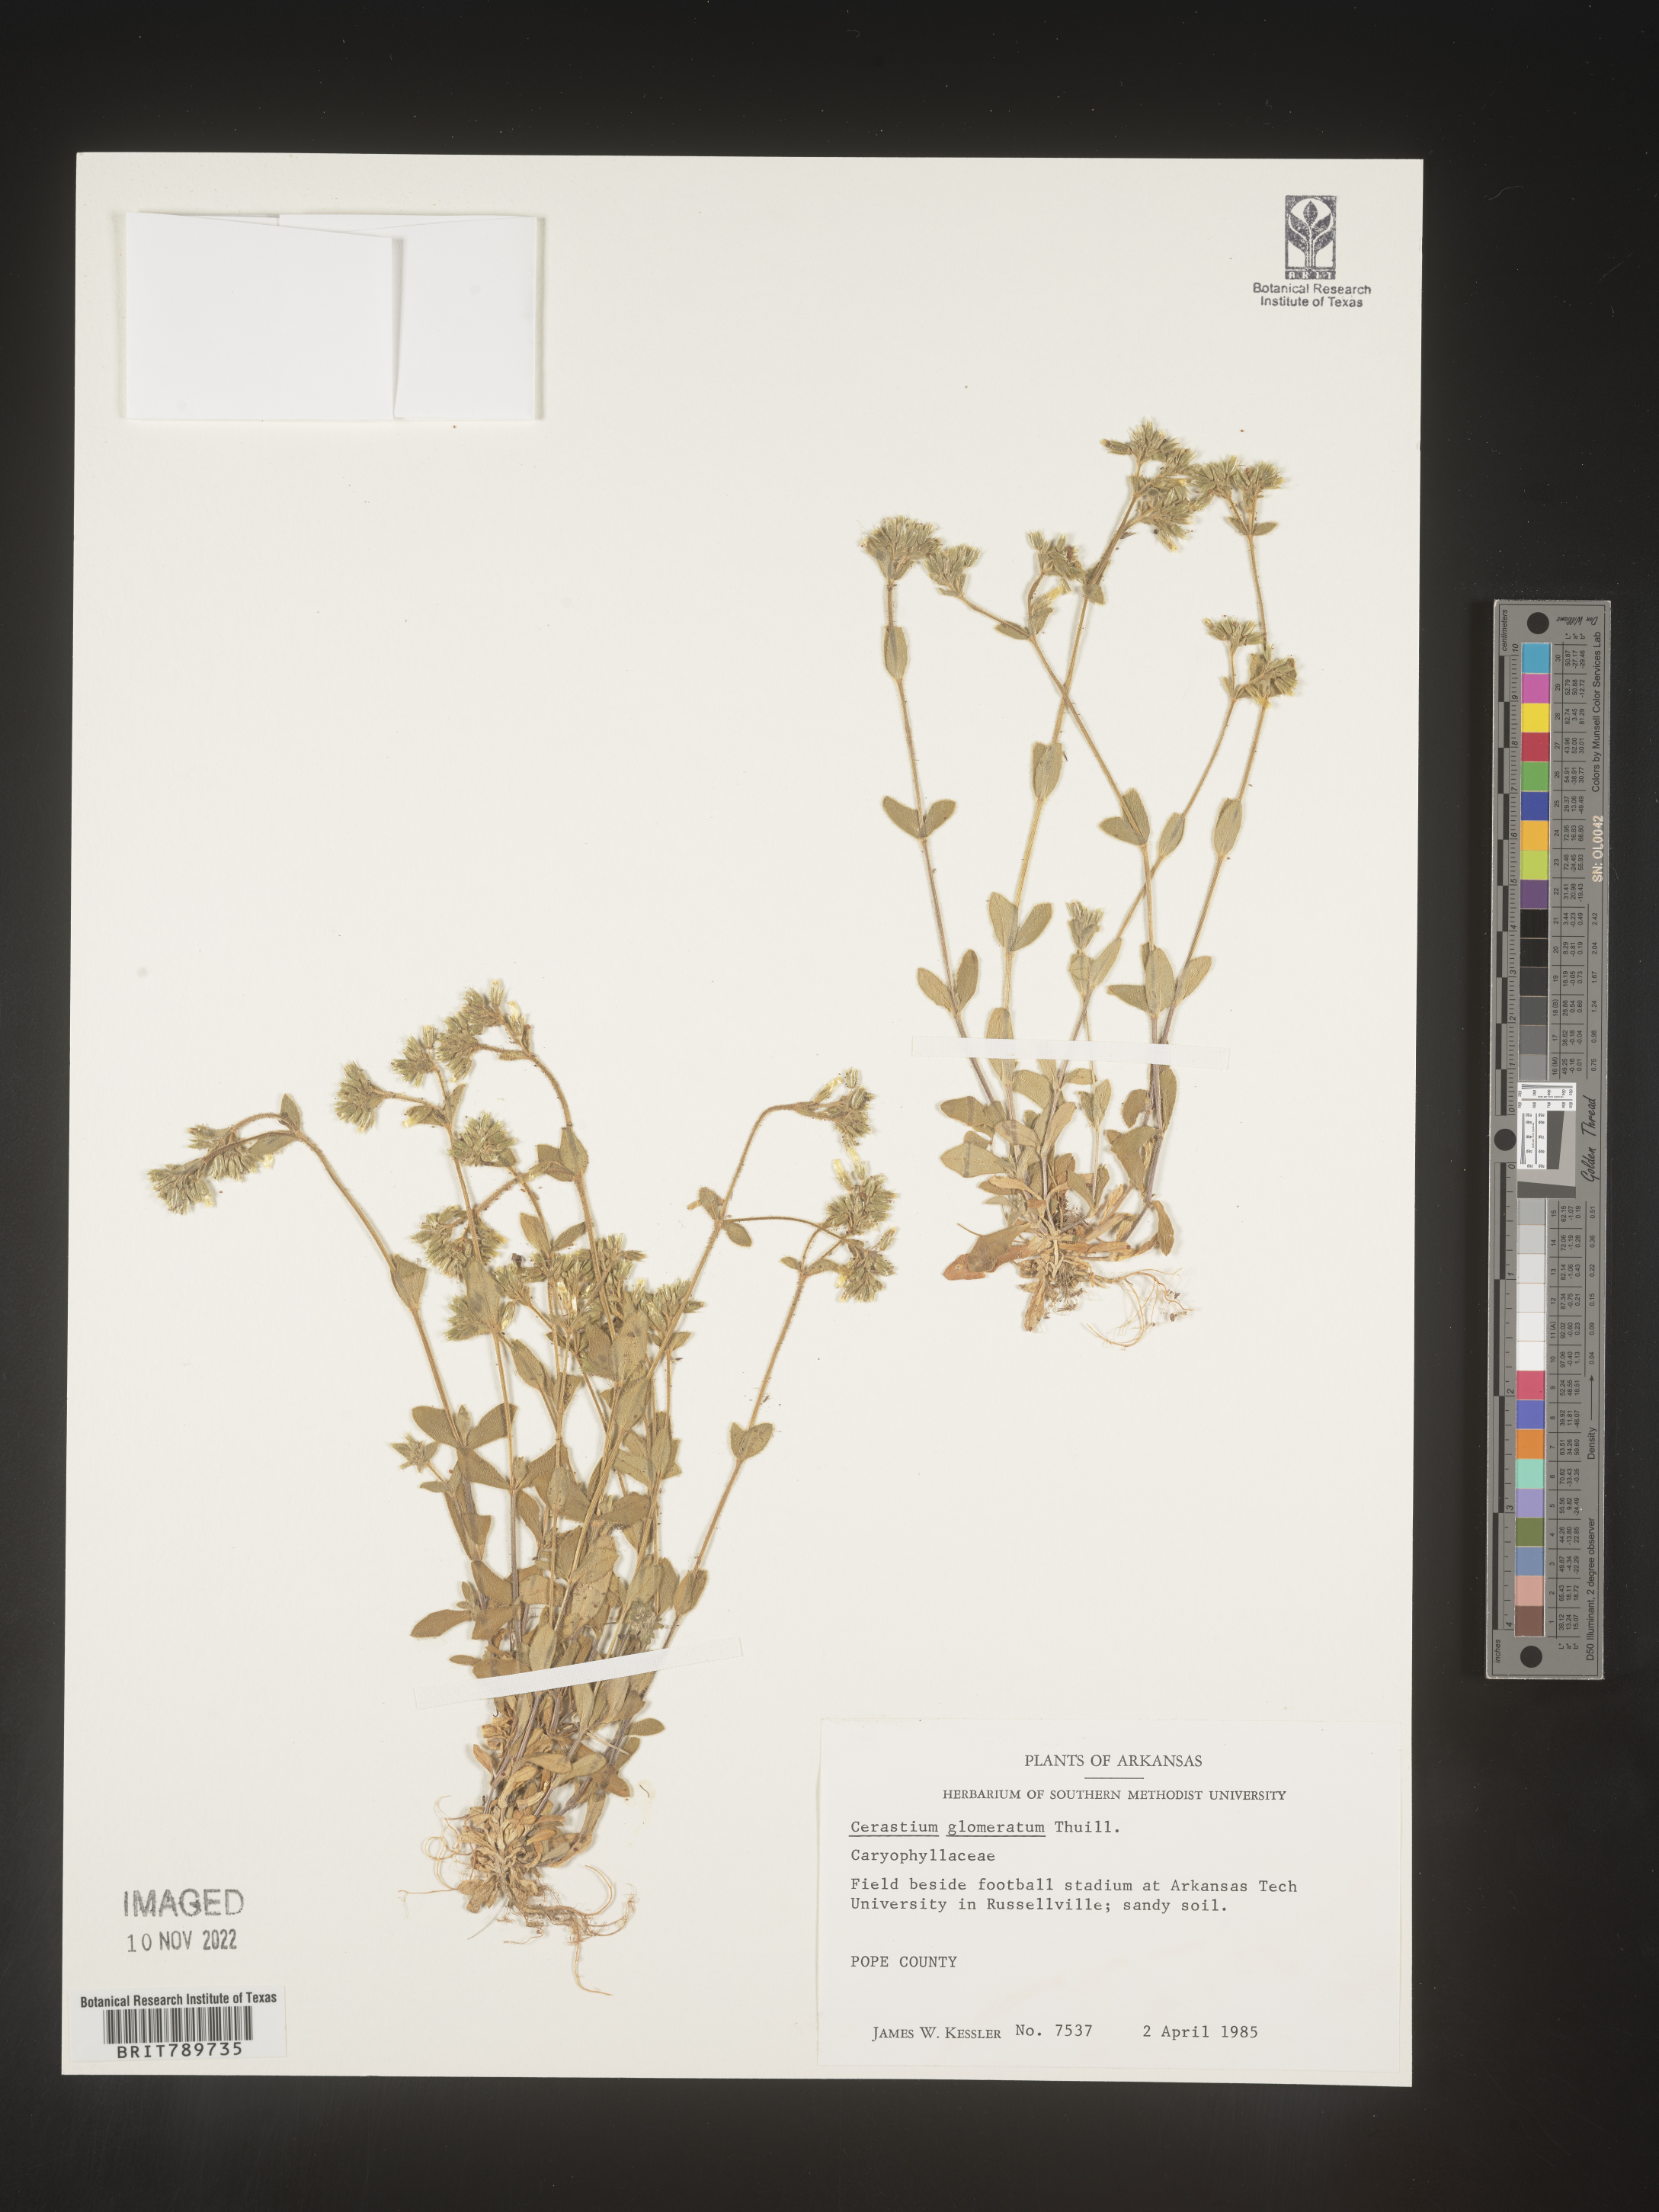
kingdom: Plantae
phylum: Tracheophyta
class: Magnoliopsida
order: Caryophyllales
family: Caryophyllaceae
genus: Cerastium
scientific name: Cerastium glomeratum
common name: Sticky chickweed
